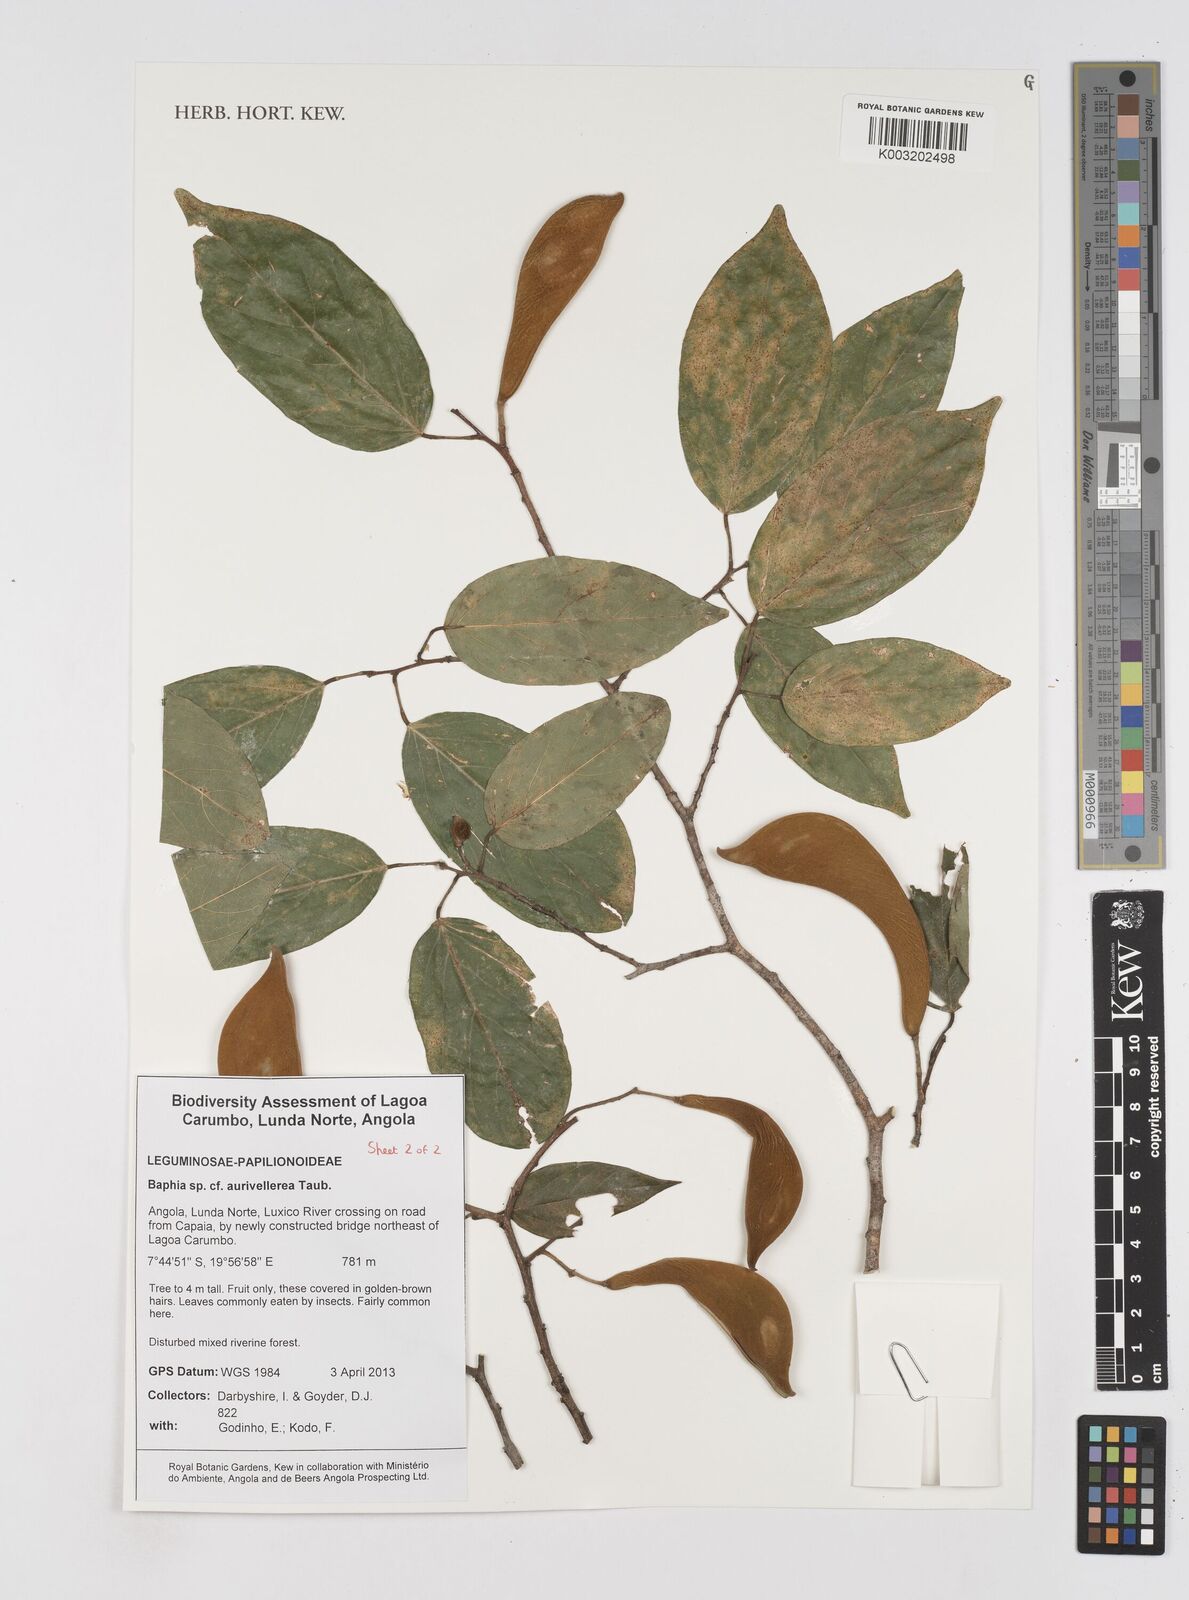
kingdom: Plantae
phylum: Tracheophyta
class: Magnoliopsida
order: Fabales
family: Fabaceae
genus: Baphia
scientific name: Baphia aurivellerea
